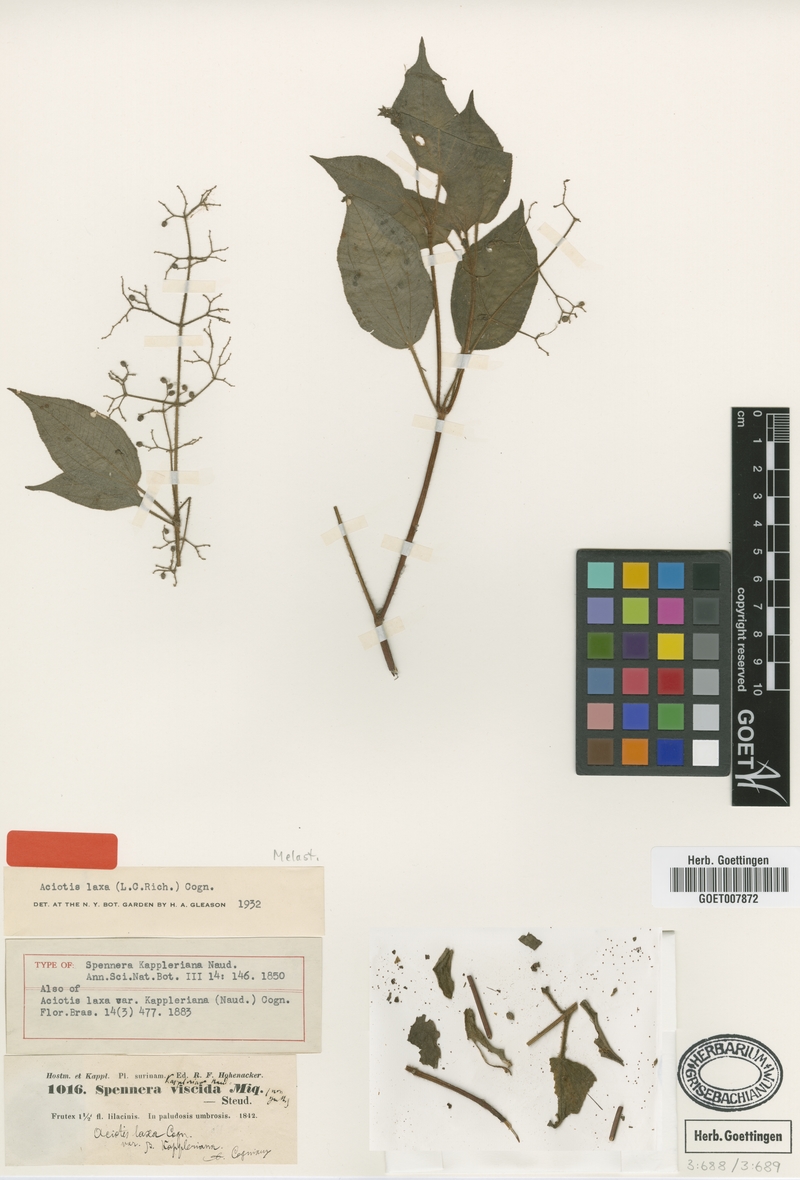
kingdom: Plantae
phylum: Tracheophyta
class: Magnoliopsida
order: Myrtales
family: Melastomataceae
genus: Aciotis
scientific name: Aciotis indecora
